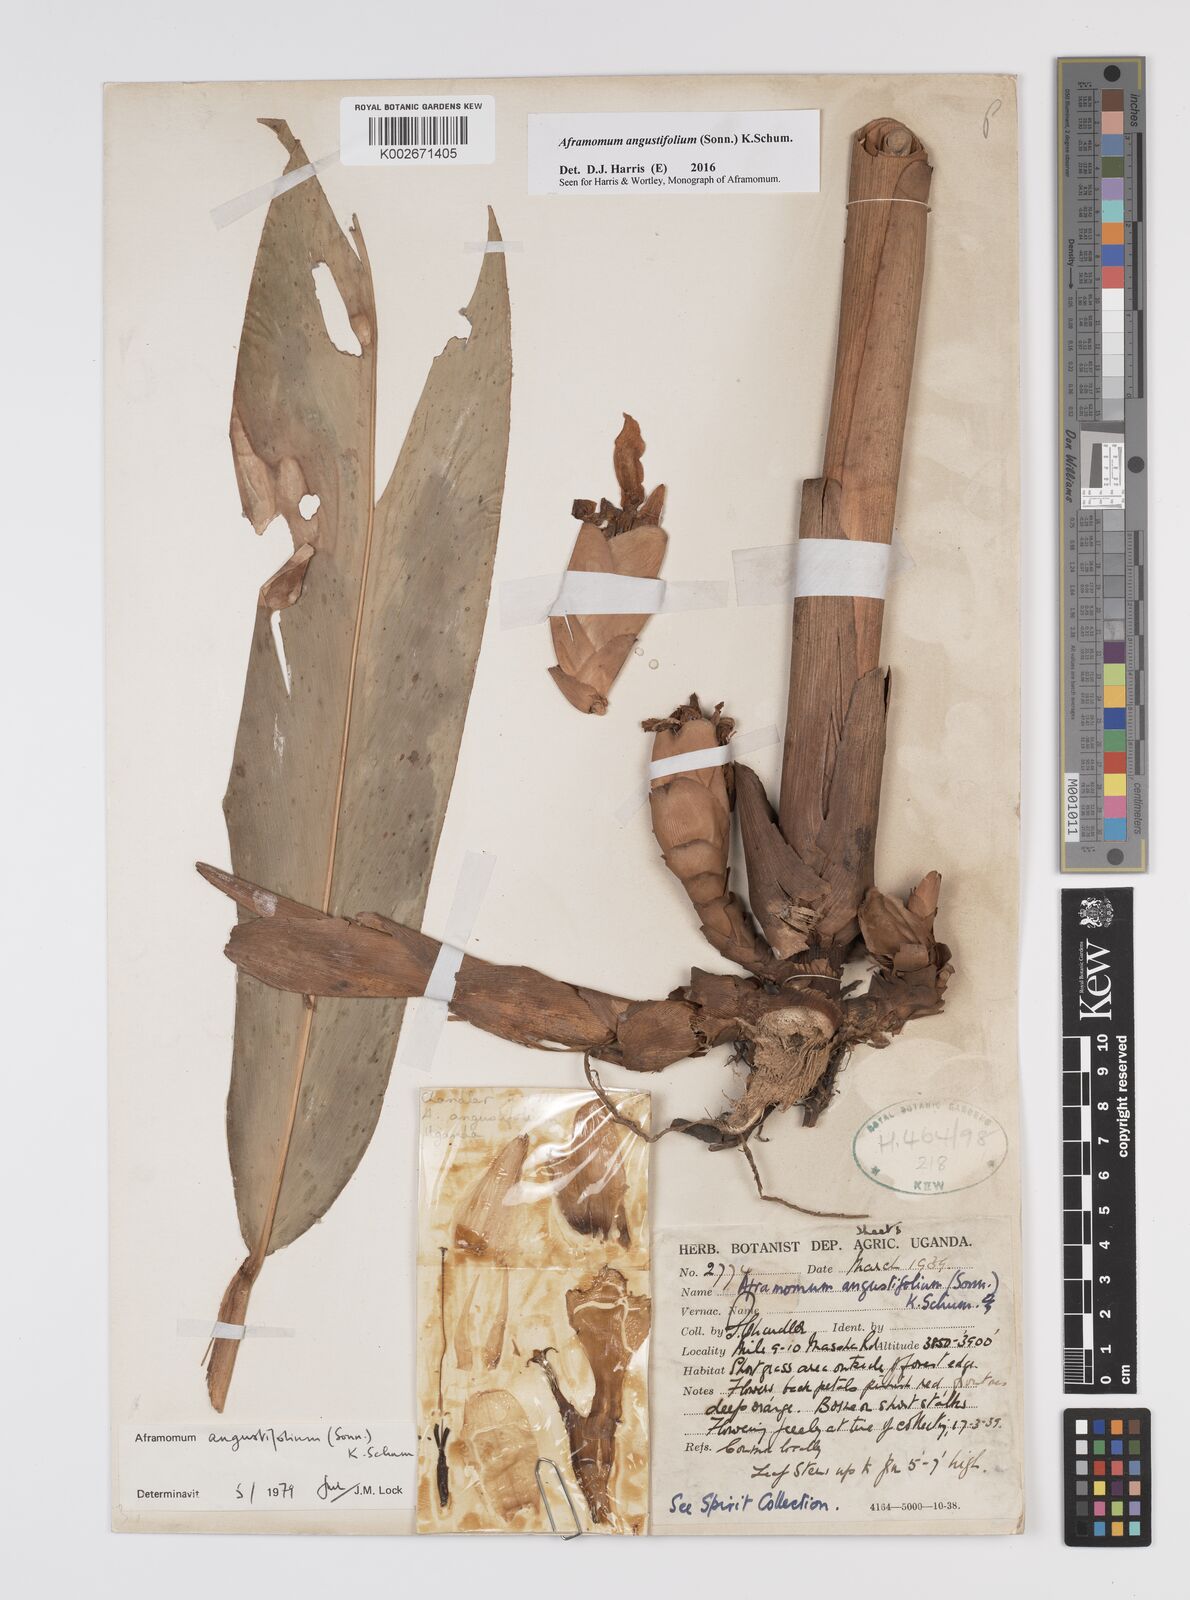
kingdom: Plantae
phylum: Tracheophyta
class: Liliopsida
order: Zingiberales
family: Zingiberaceae
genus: Aframomum
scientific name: Aframomum angustifolium
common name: Guinea grains
